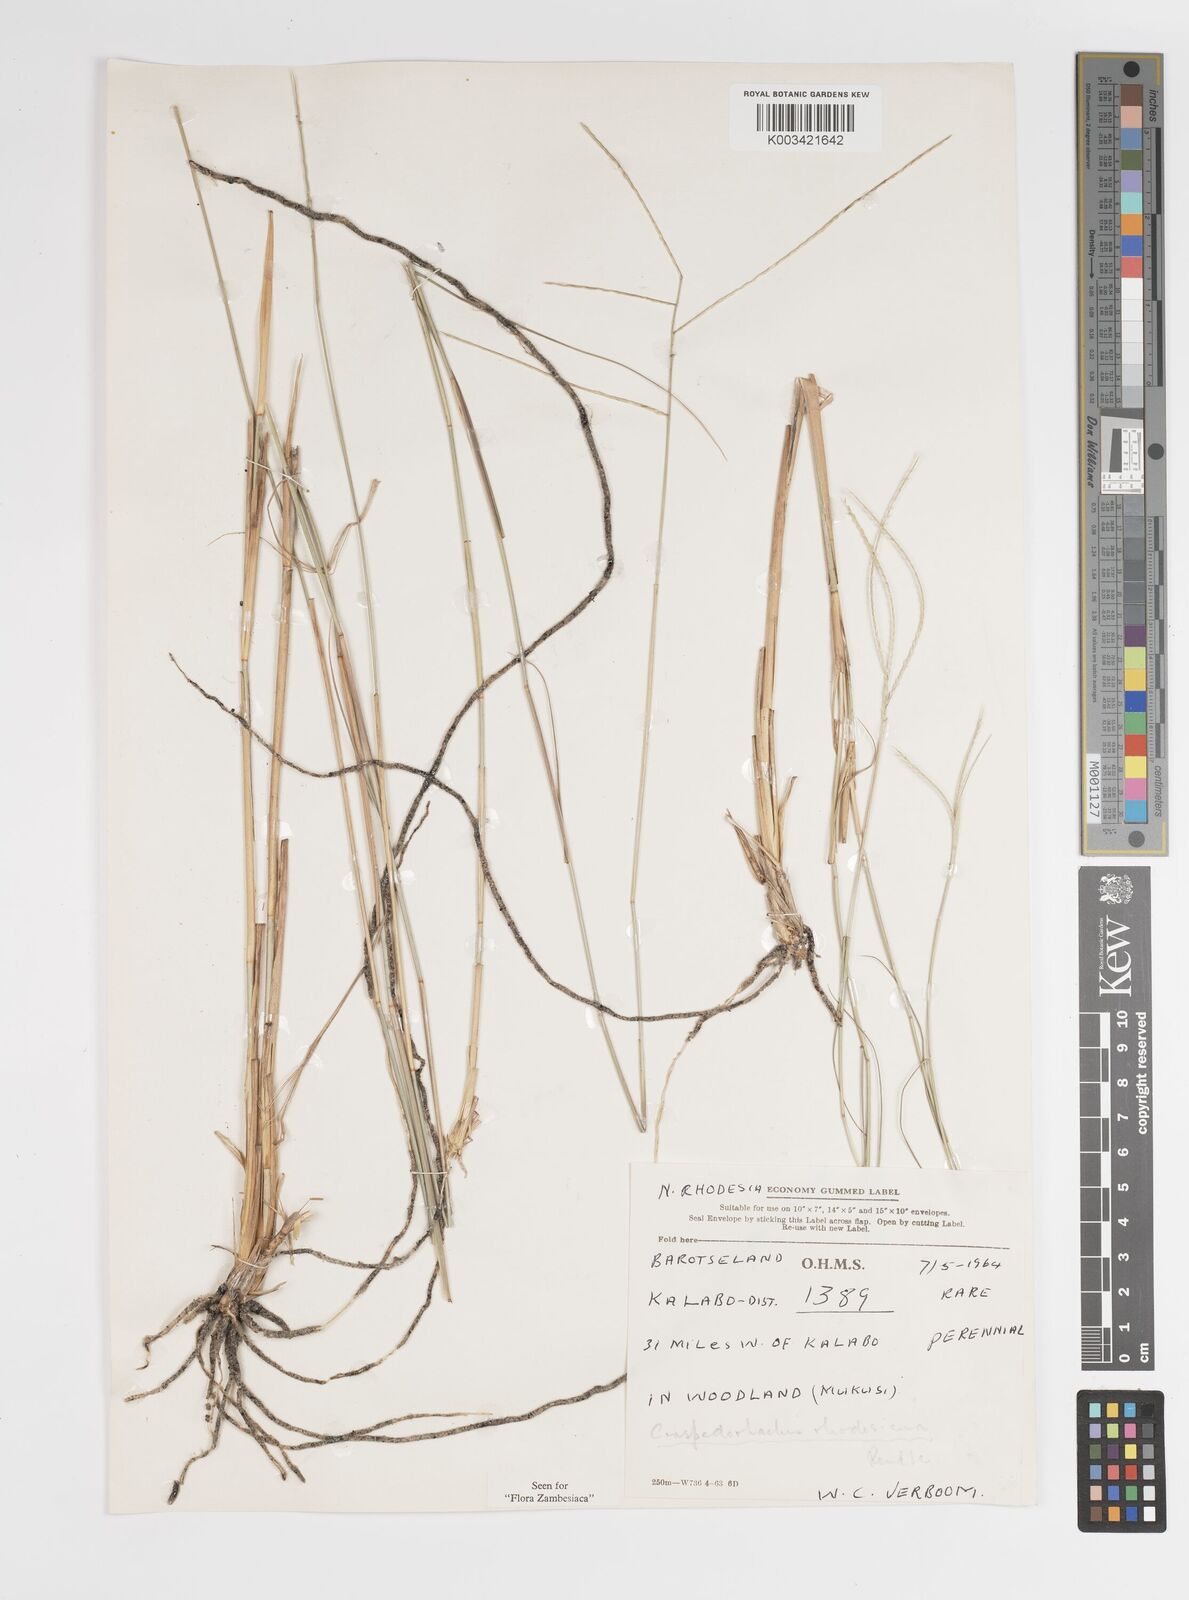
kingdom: Plantae
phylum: Tracheophyta
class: Liliopsida
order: Poales
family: Poaceae
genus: Craspedorhachis
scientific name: Craspedorhachis rhodesiana
